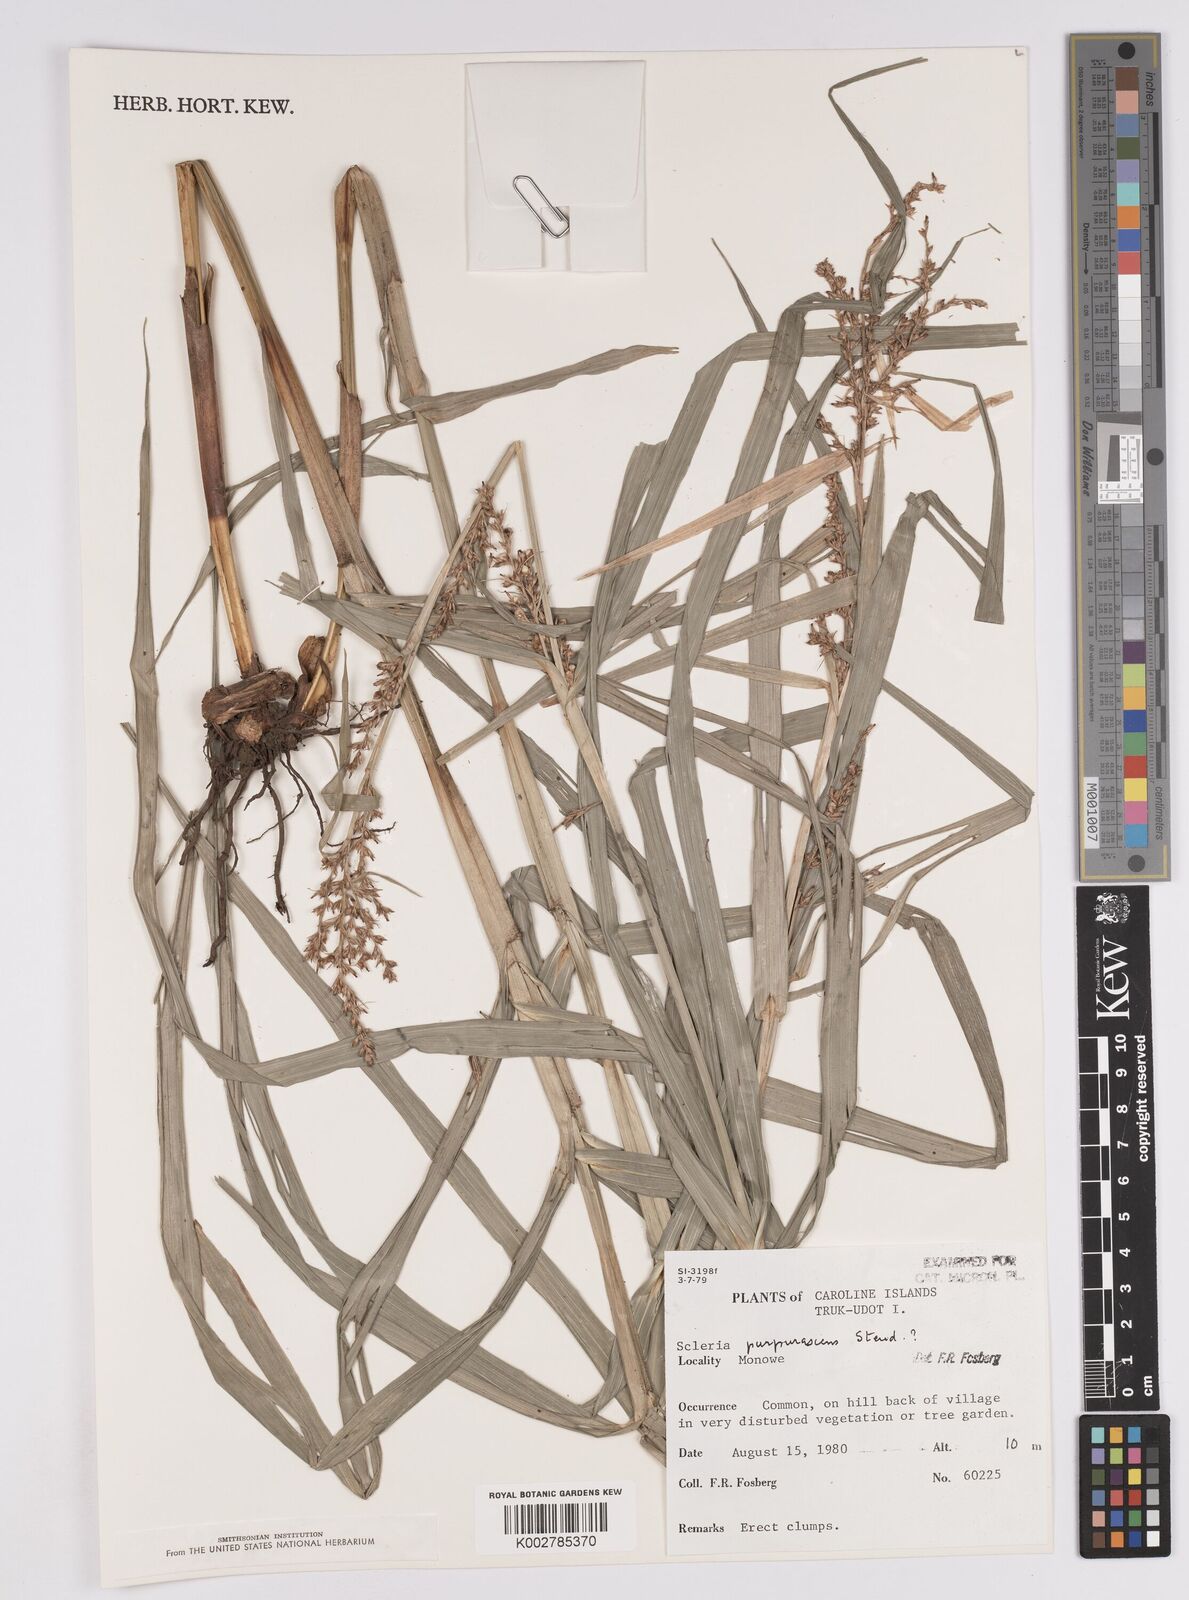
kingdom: Plantae
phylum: Tracheophyta
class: Liliopsida
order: Poales
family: Cyperaceae
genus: Scleria
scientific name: Scleria purpurascens
